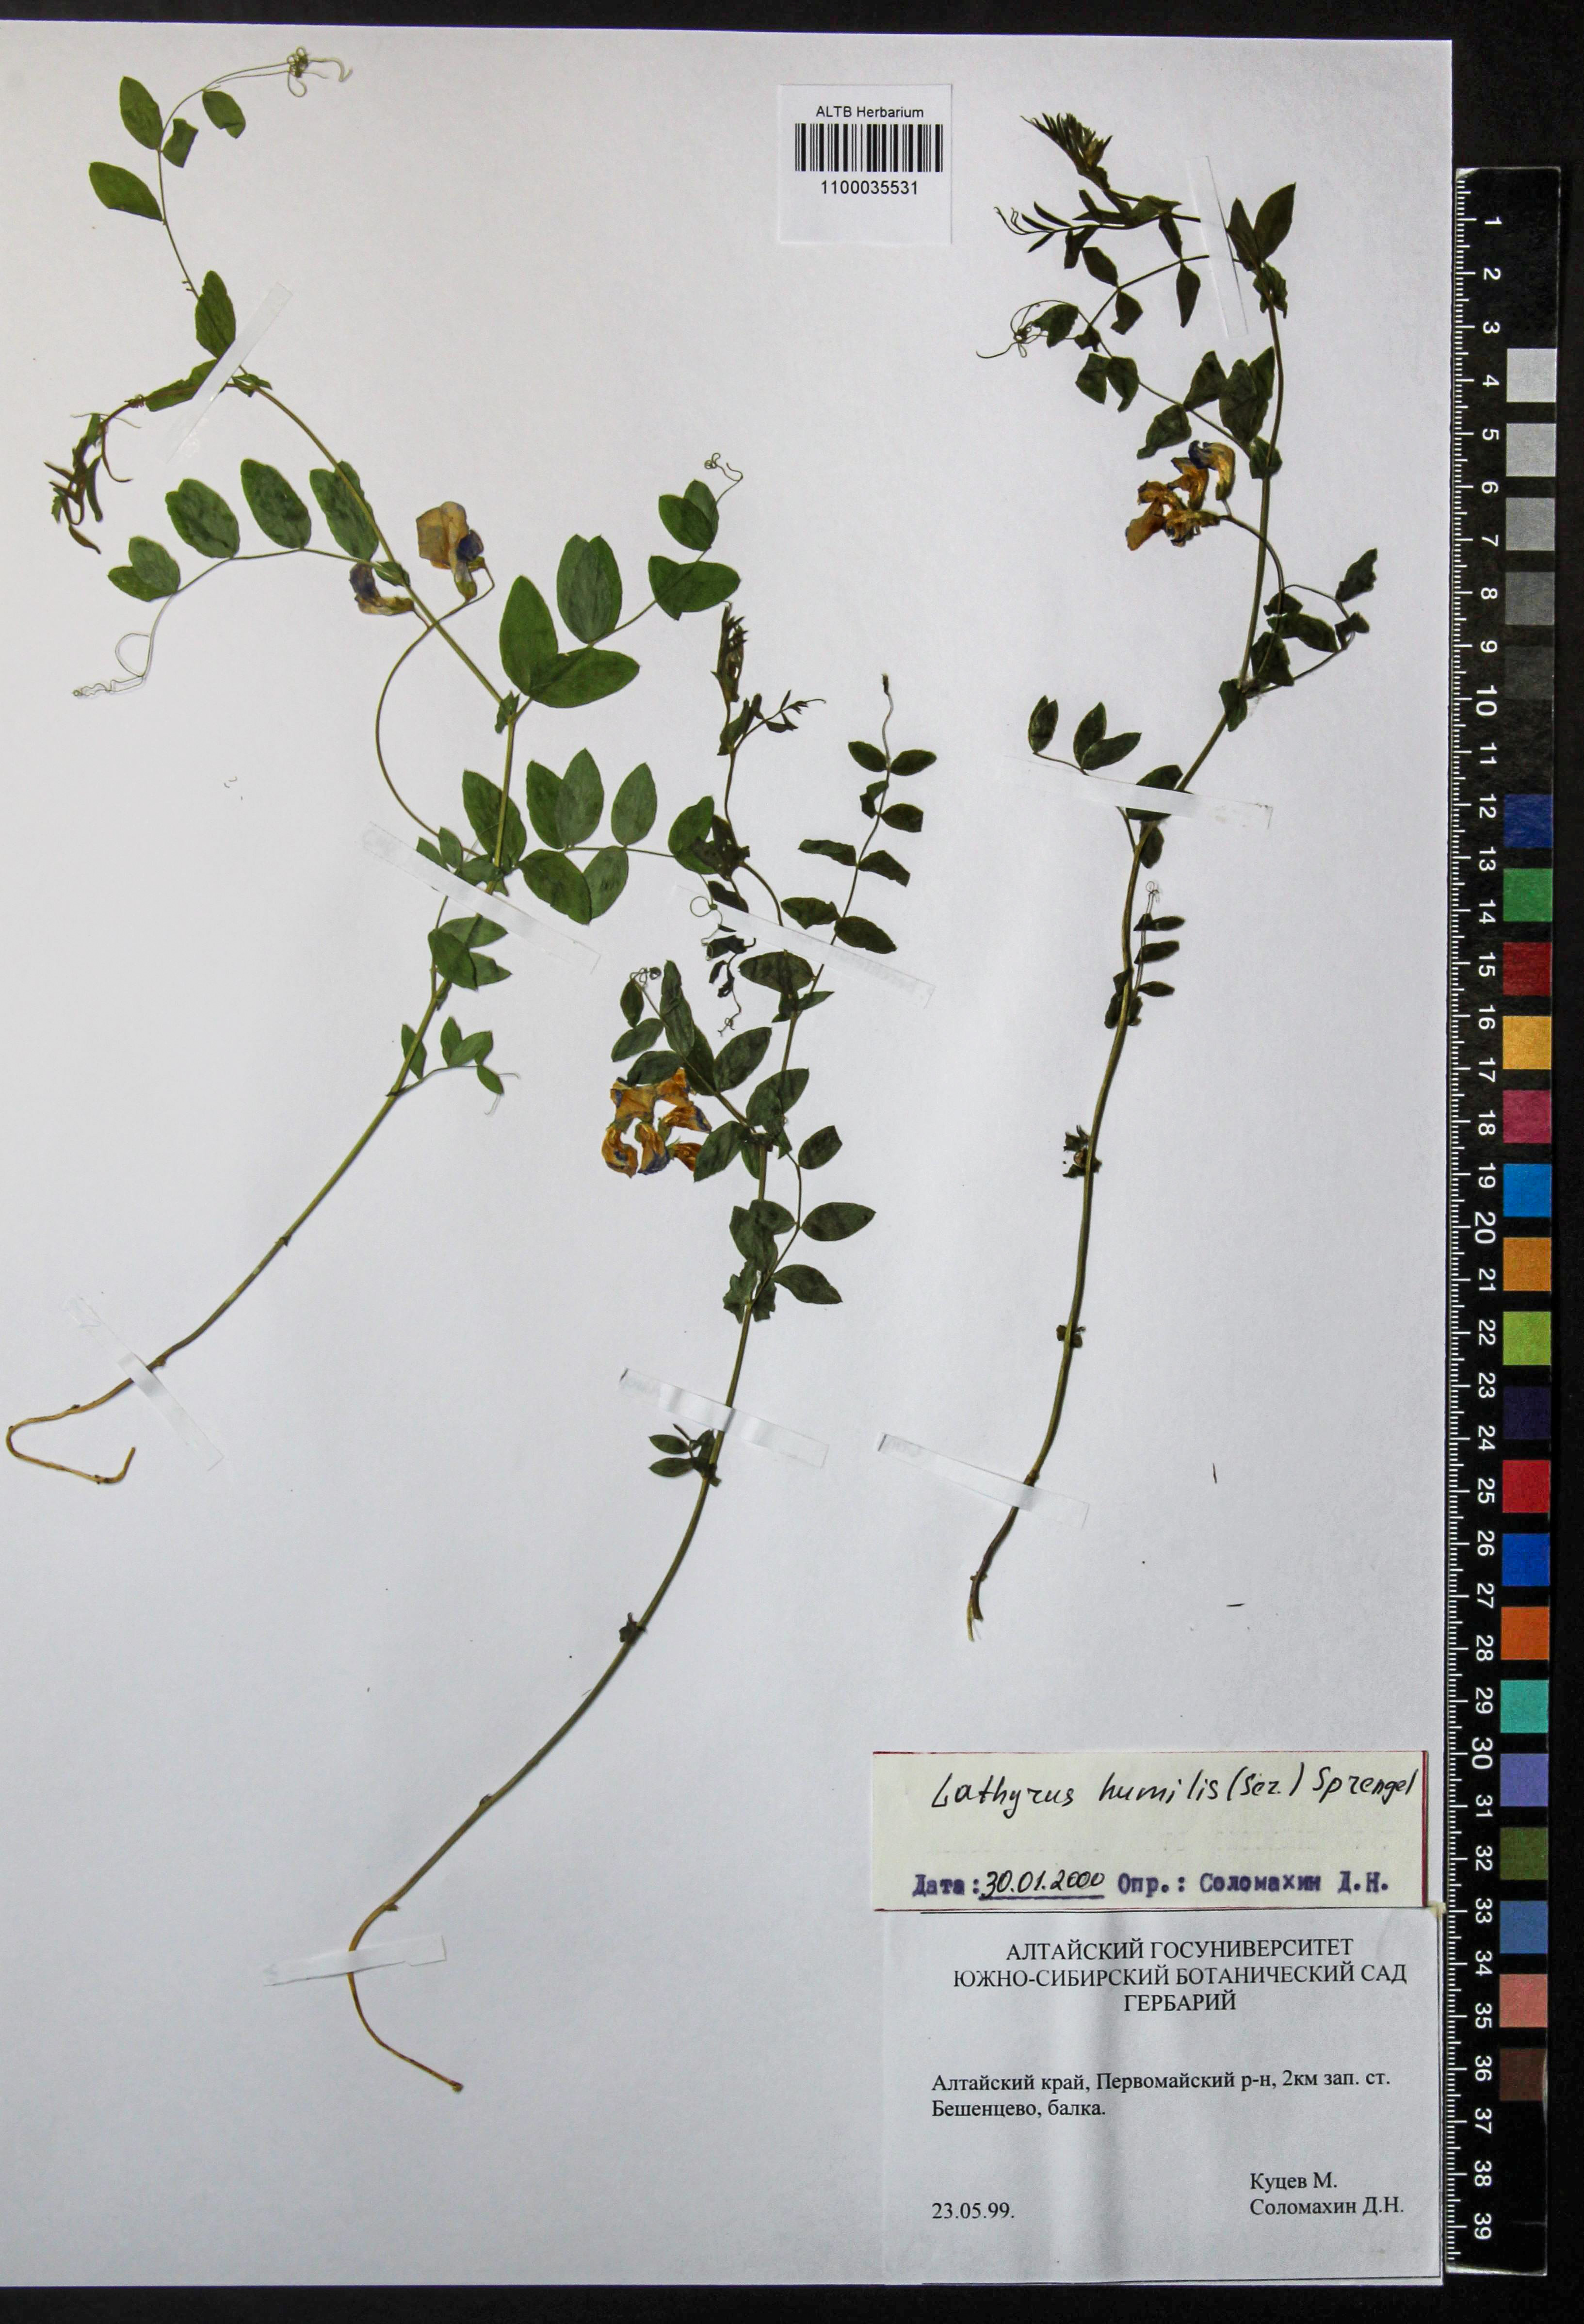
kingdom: Plantae
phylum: Tracheophyta
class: Magnoliopsida
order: Fabales
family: Fabaceae
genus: Lathyrus
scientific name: Lathyrus humilis
